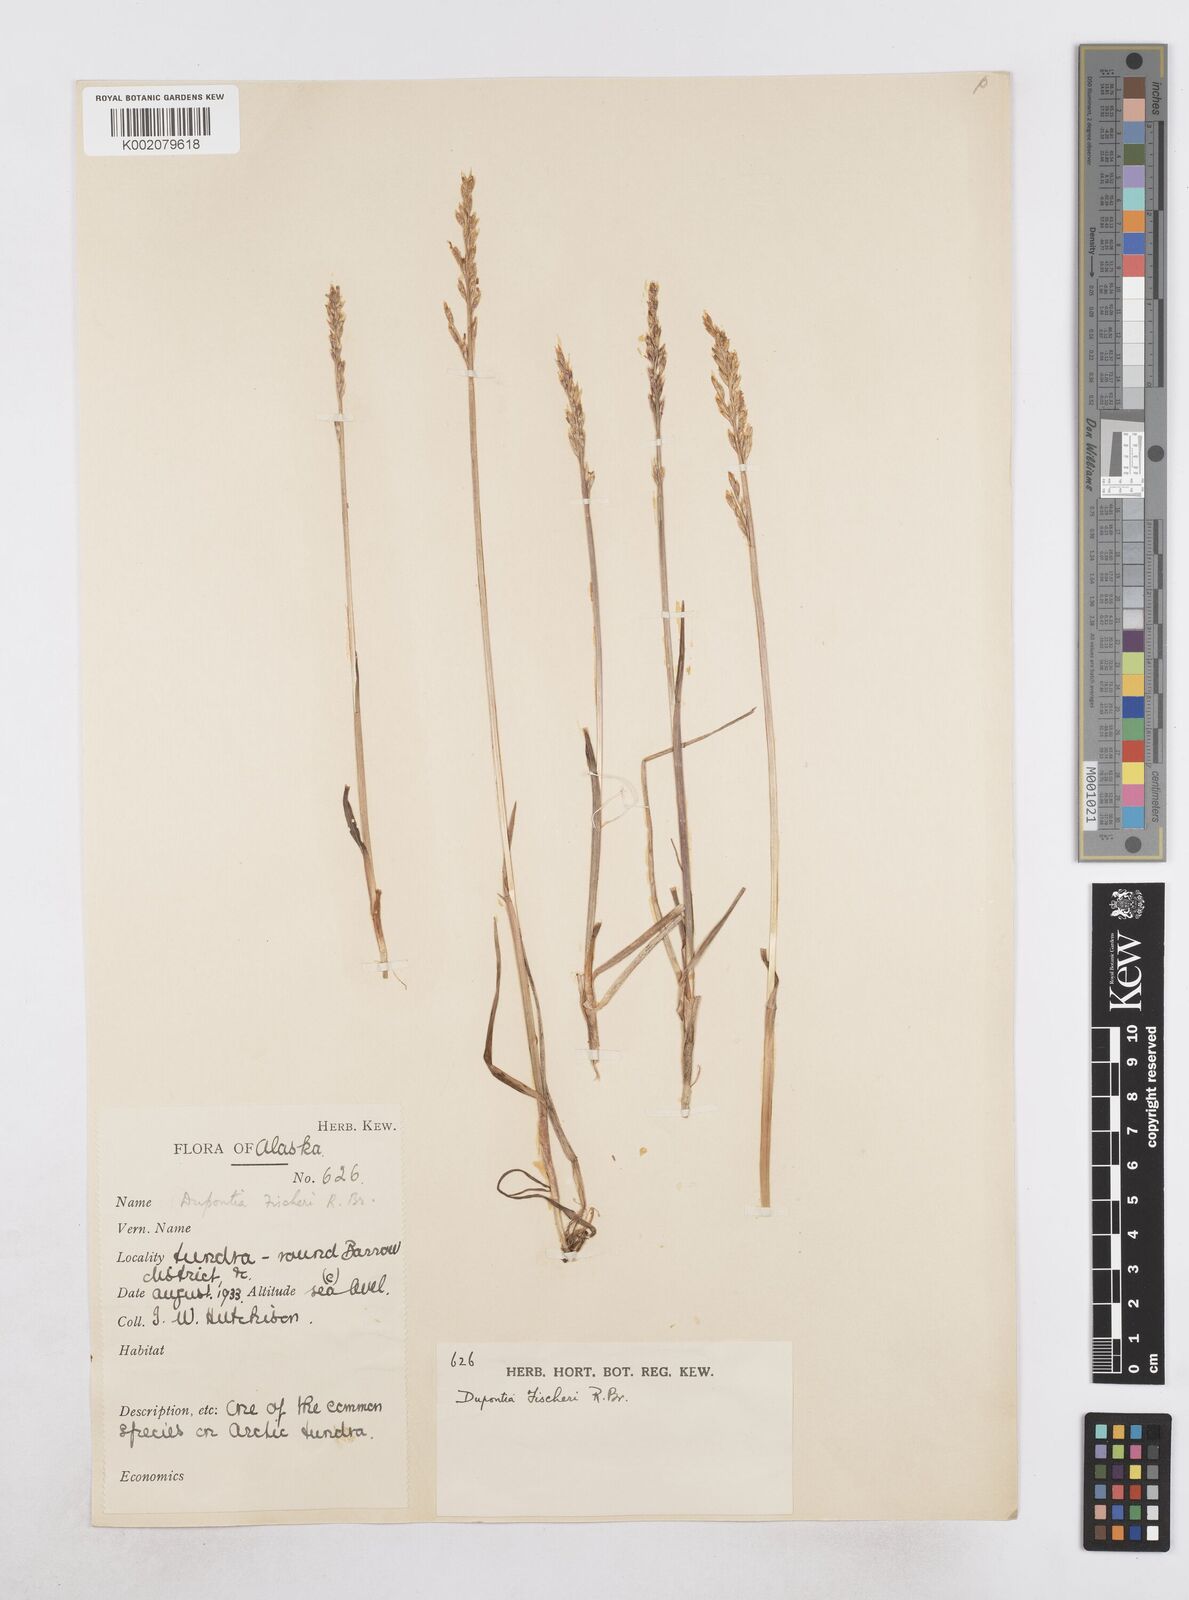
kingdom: Plantae
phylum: Tracheophyta
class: Liliopsida
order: Poales
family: Poaceae
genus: Dupontia
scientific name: Dupontia fisheri
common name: Tundra grass
